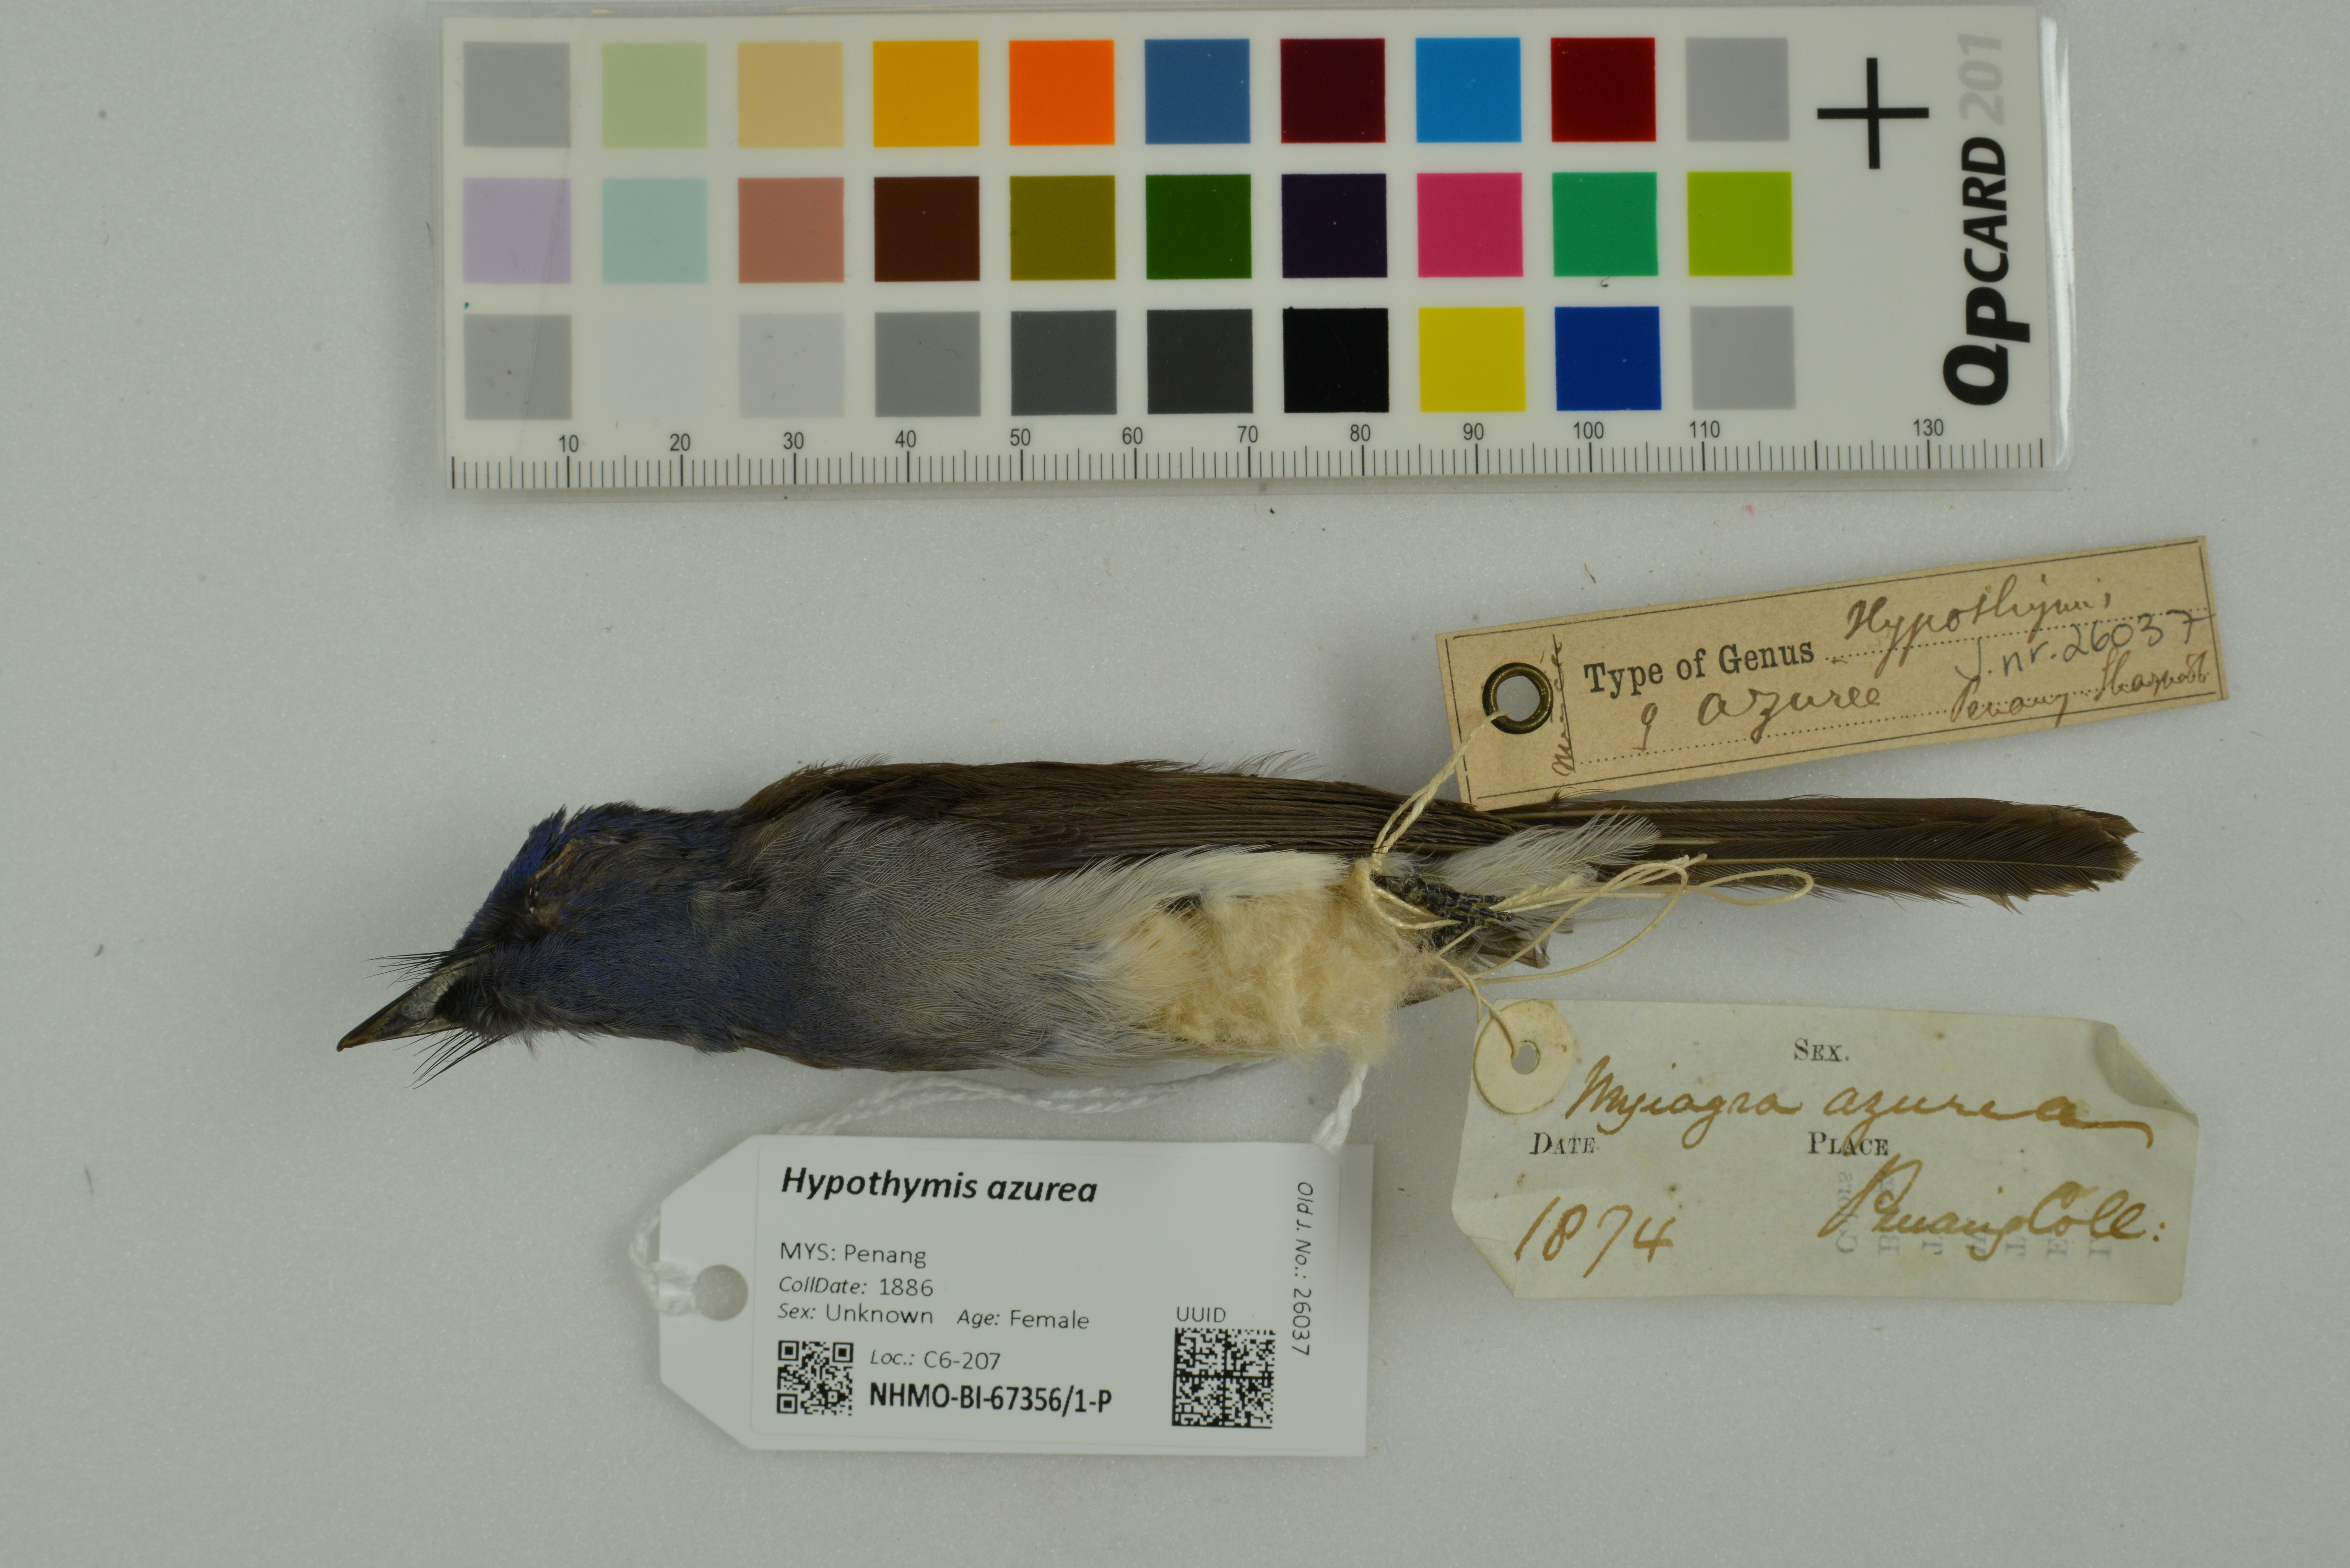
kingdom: Animalia
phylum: Chordata
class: Aves
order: Passeriformes
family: Monarchidae
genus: Hypothymis
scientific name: Hypothymis azurea
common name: Black-naped monarch
